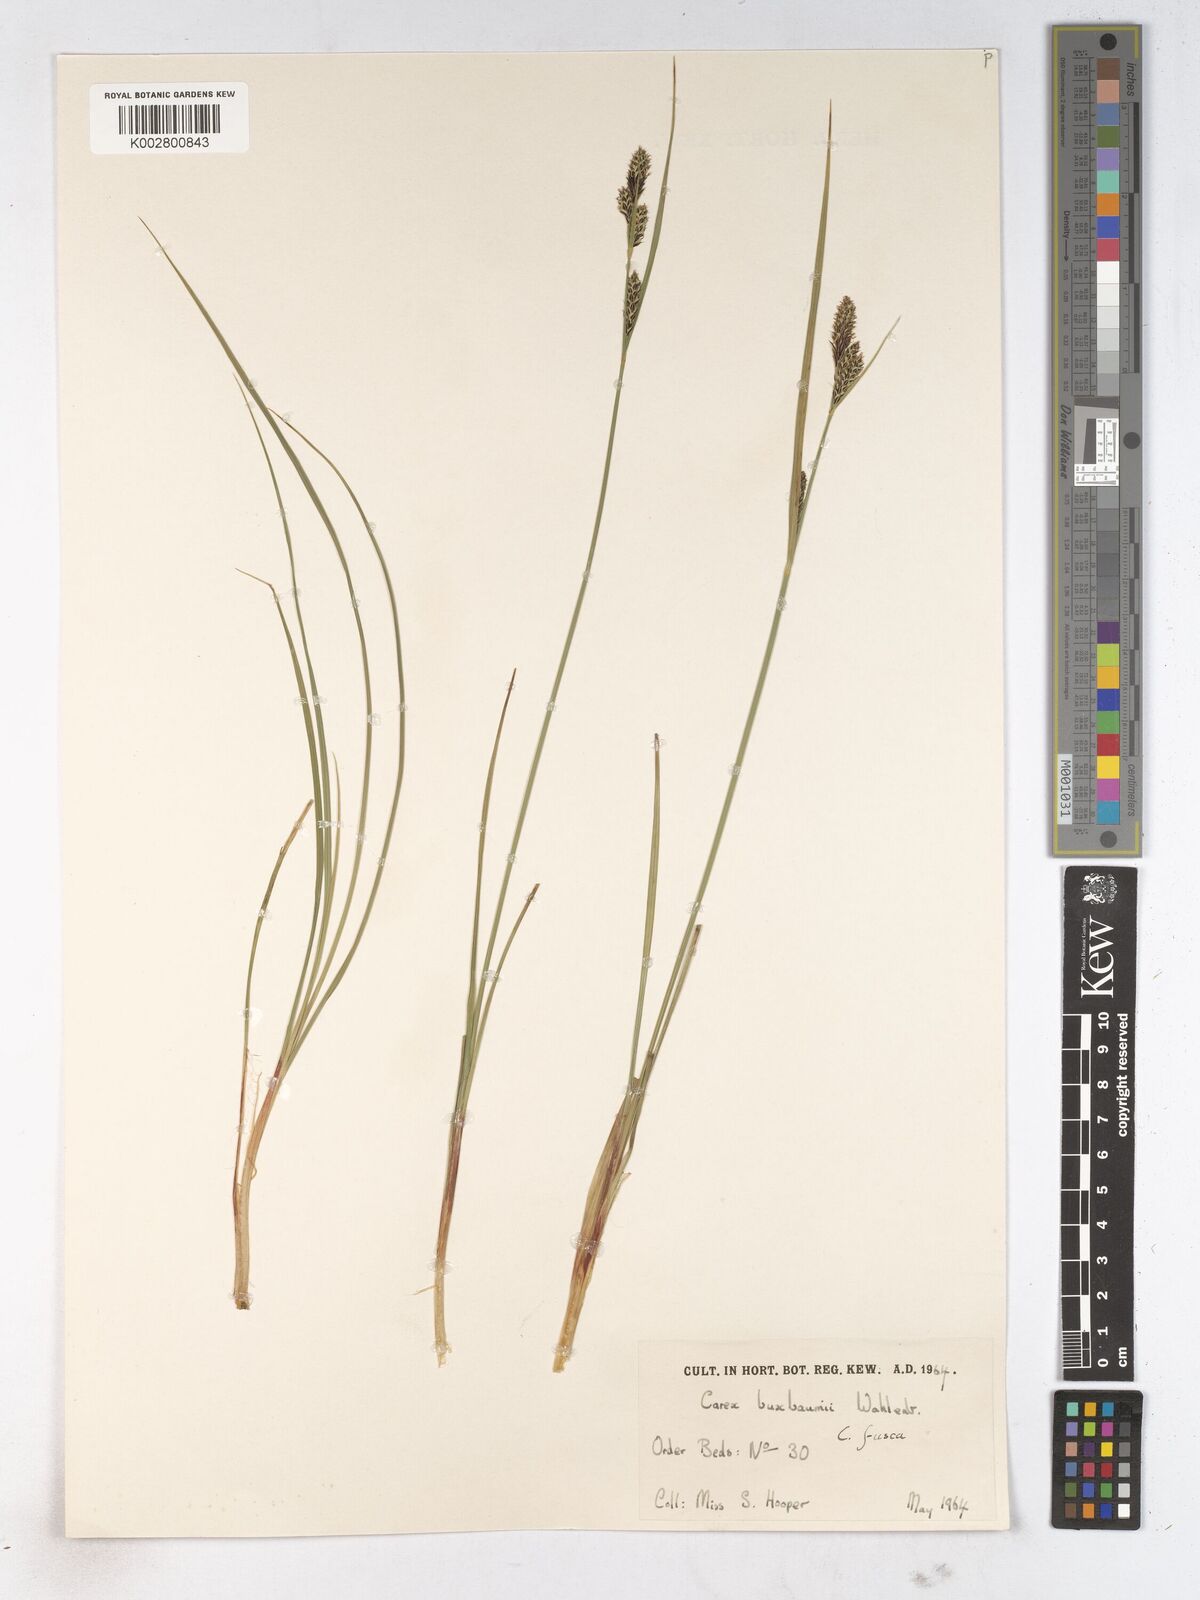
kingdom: Plantae
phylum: Tracheophyta
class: Liliopsida
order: Poales
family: Cyperaceae
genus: Carex
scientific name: Carex breviculmis
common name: Asian shortstem sedge
